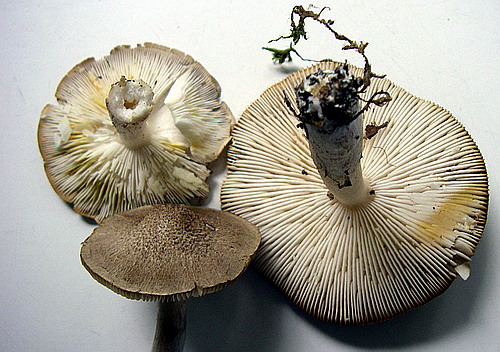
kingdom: Fungi
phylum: Basidiomycota
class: Agaricomycetes
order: Agaricales
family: Tricholomataceae
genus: Tricholoma
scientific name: Tricholoma scalpturatum
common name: gulplettet ridderhat
